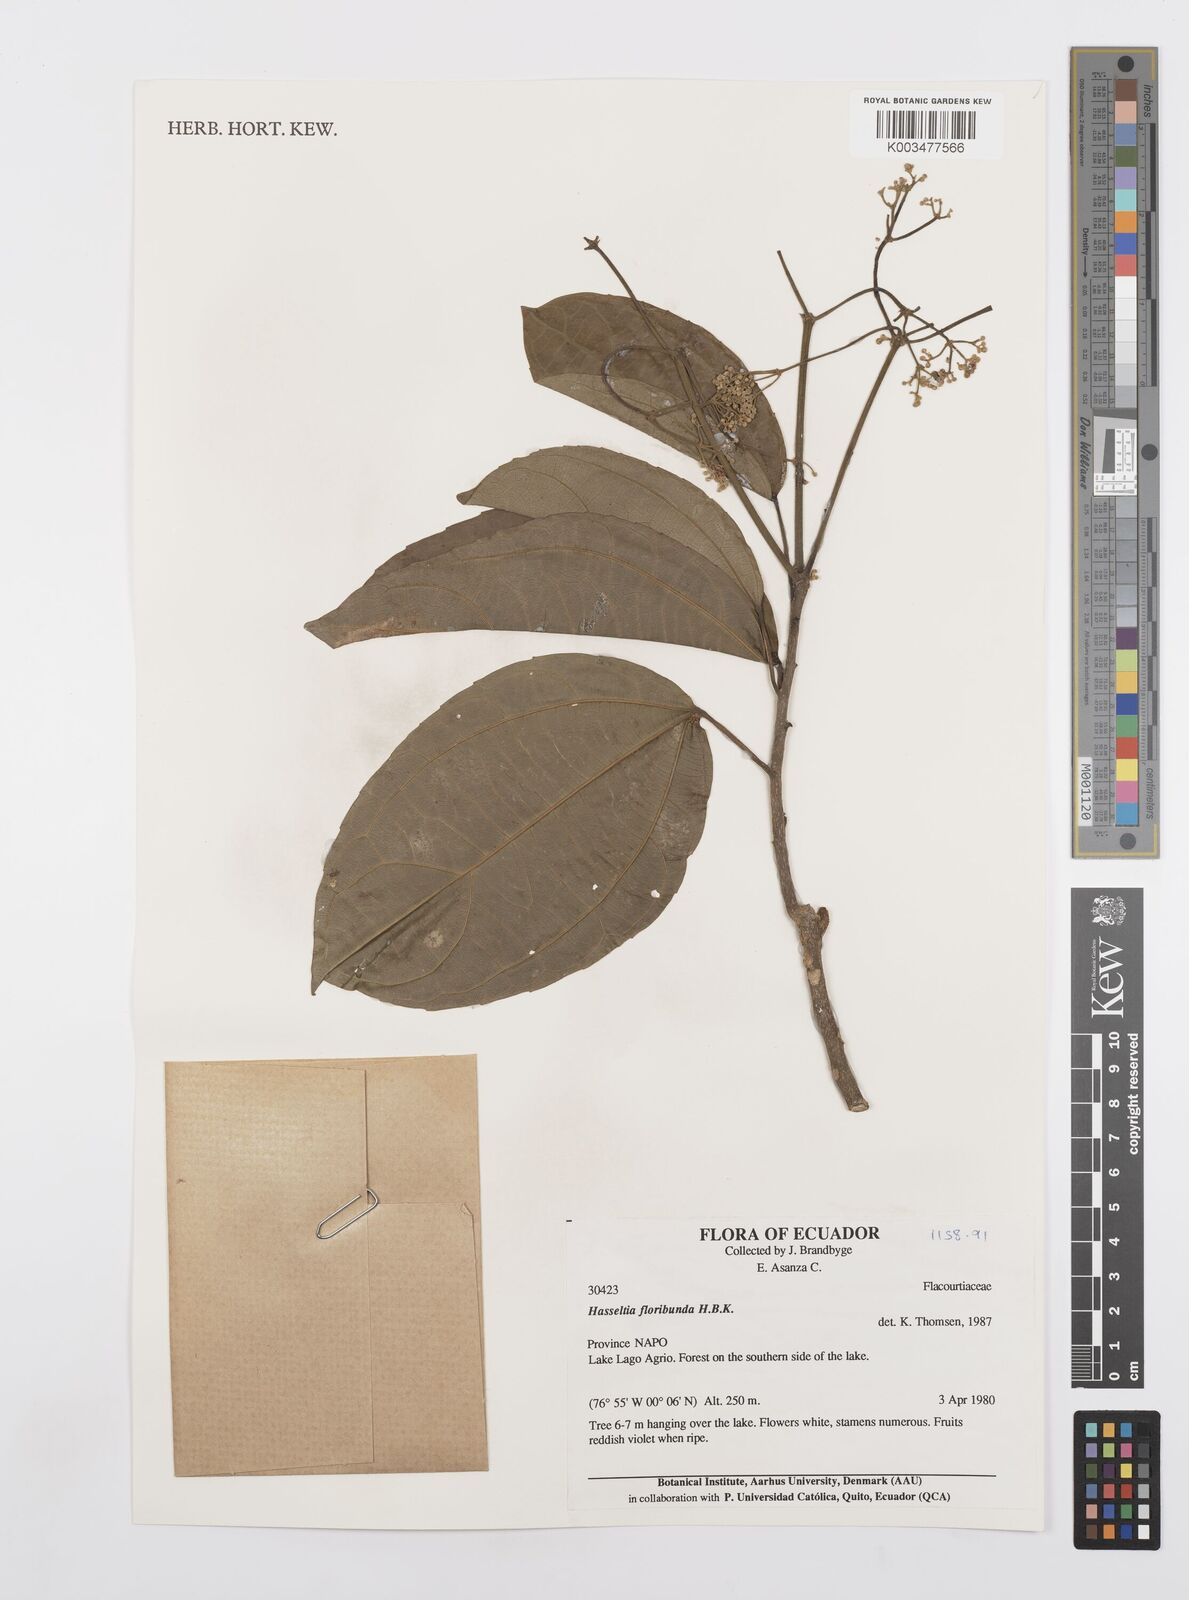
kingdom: Plantae
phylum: Tracheophyta
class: Magnoliopsida
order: Malpighiales
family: Salicaceae
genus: Hasseltia
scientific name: Hasseltia floribunda
